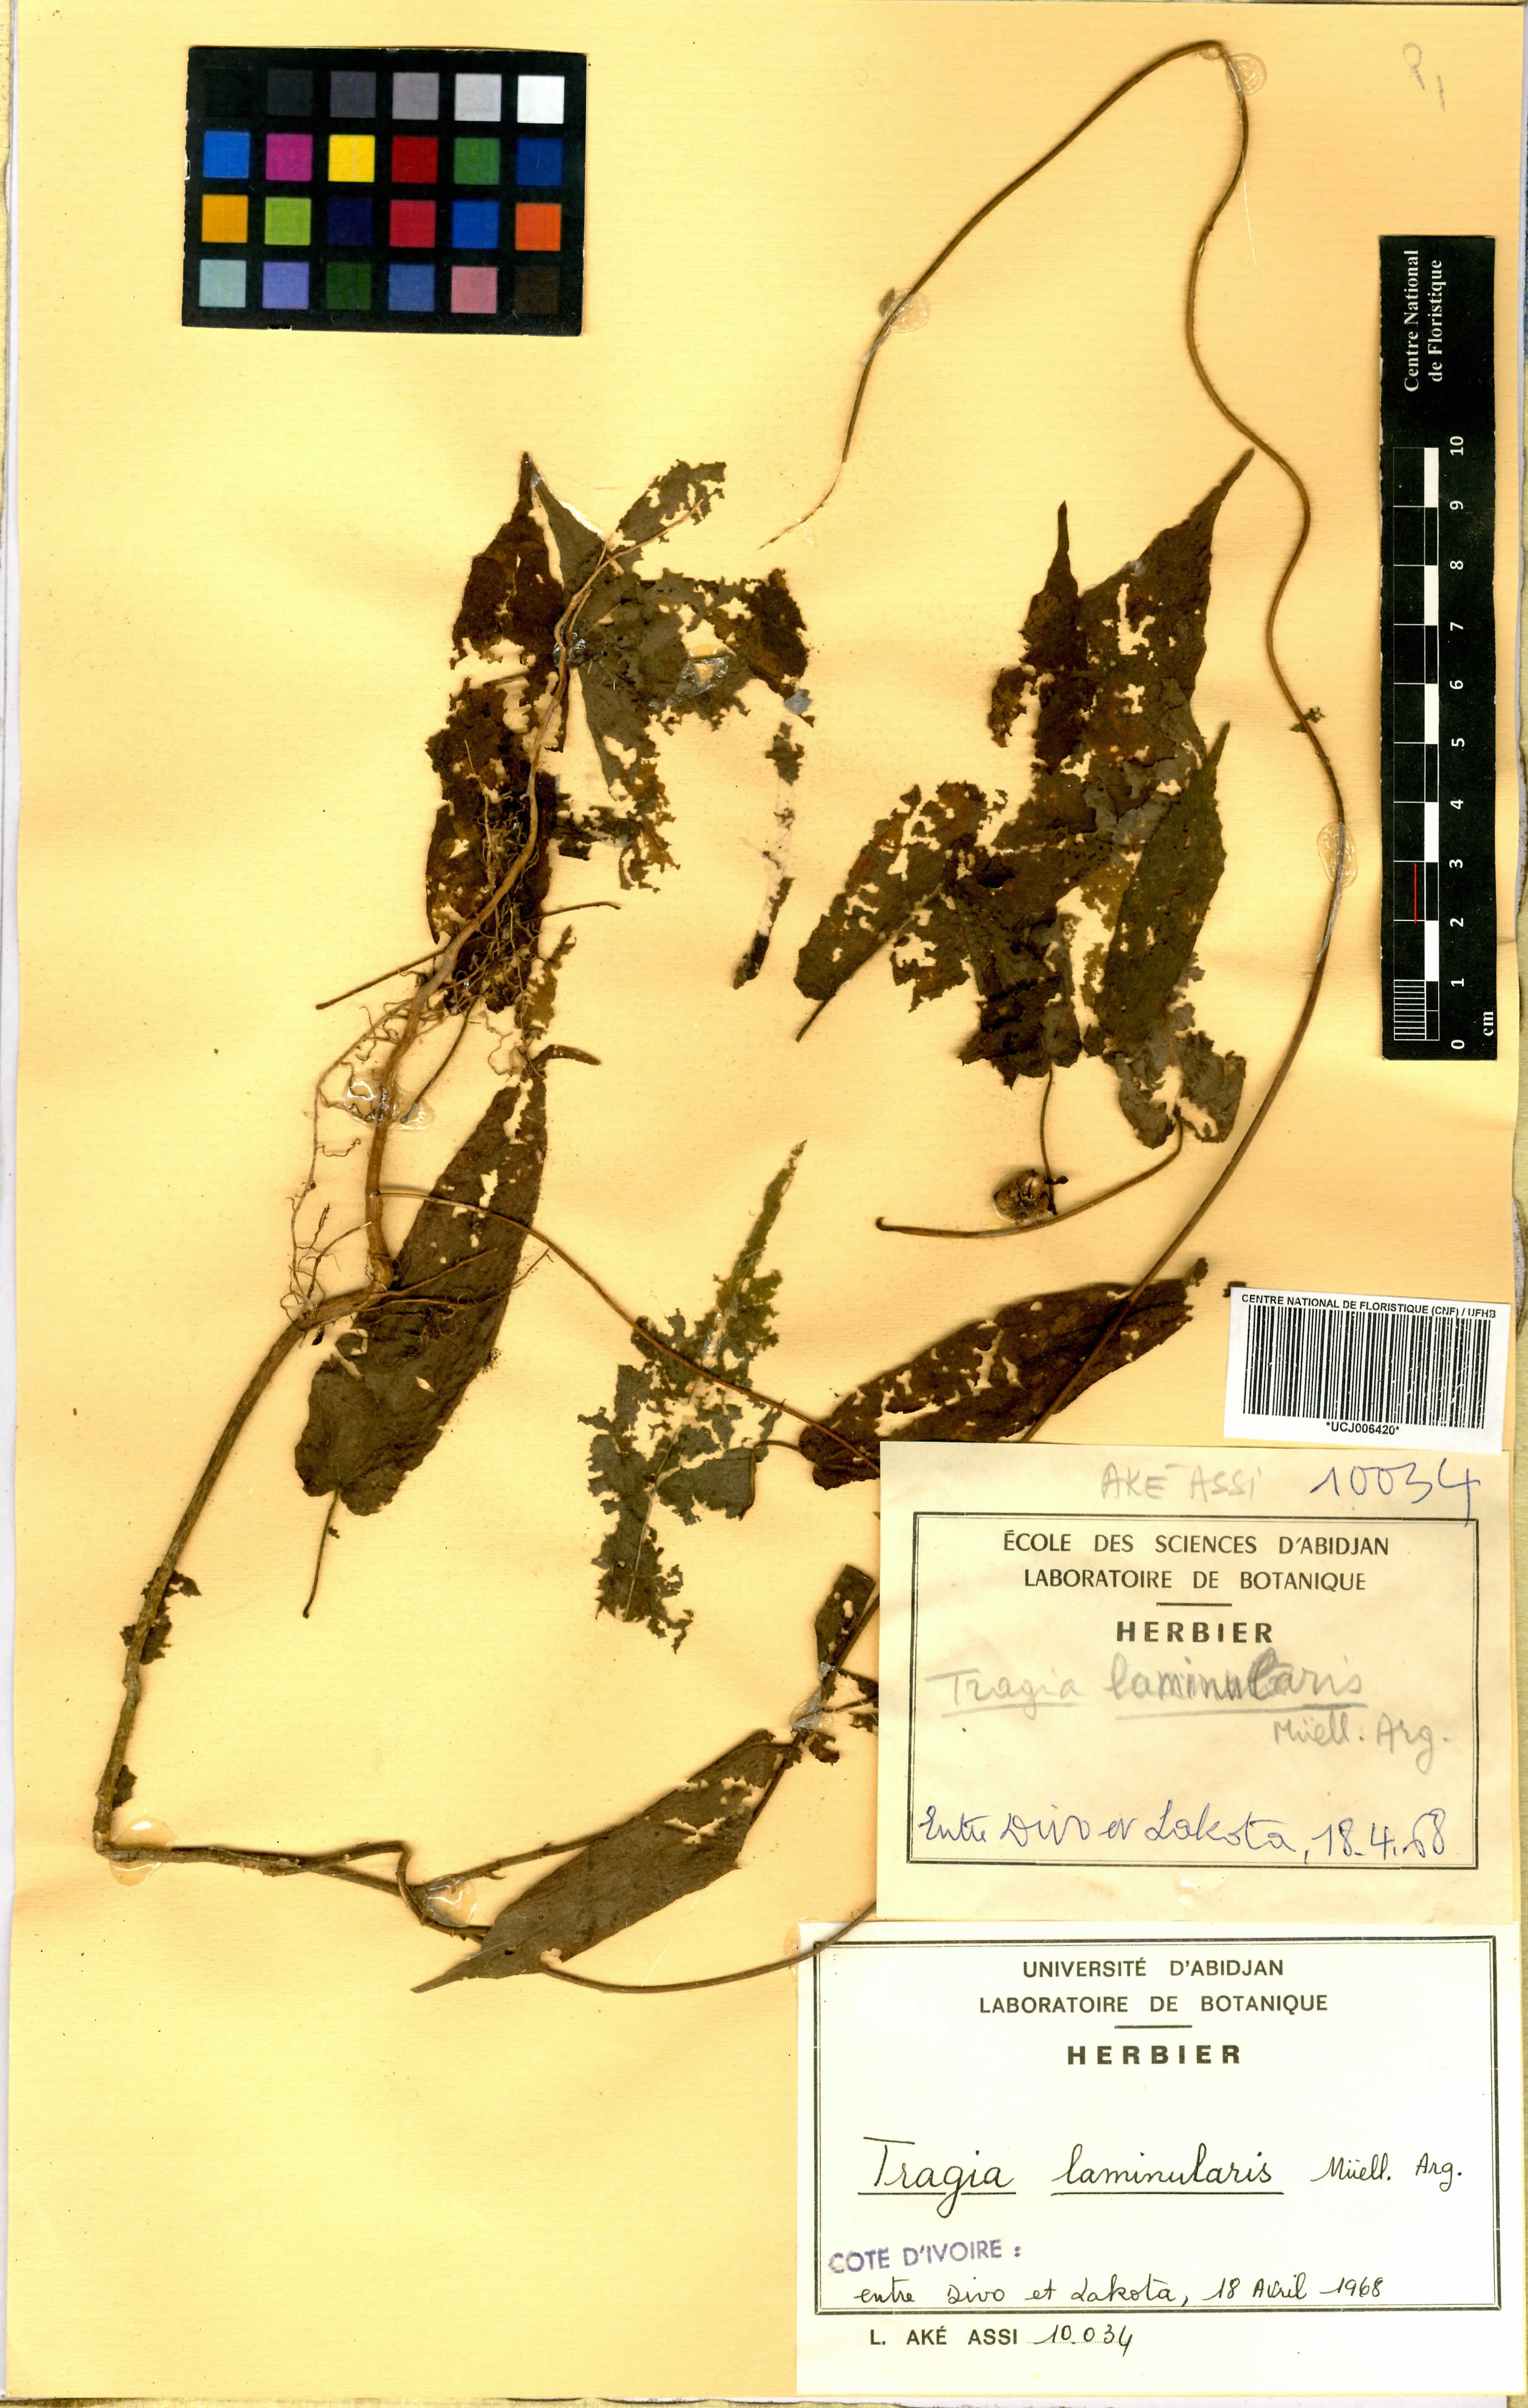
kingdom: Plantae
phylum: Tracheophyta
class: Magnoliopsida
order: Malpighiales
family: Euphorbiaceae
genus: Tragia
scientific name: Tragia laminularis
